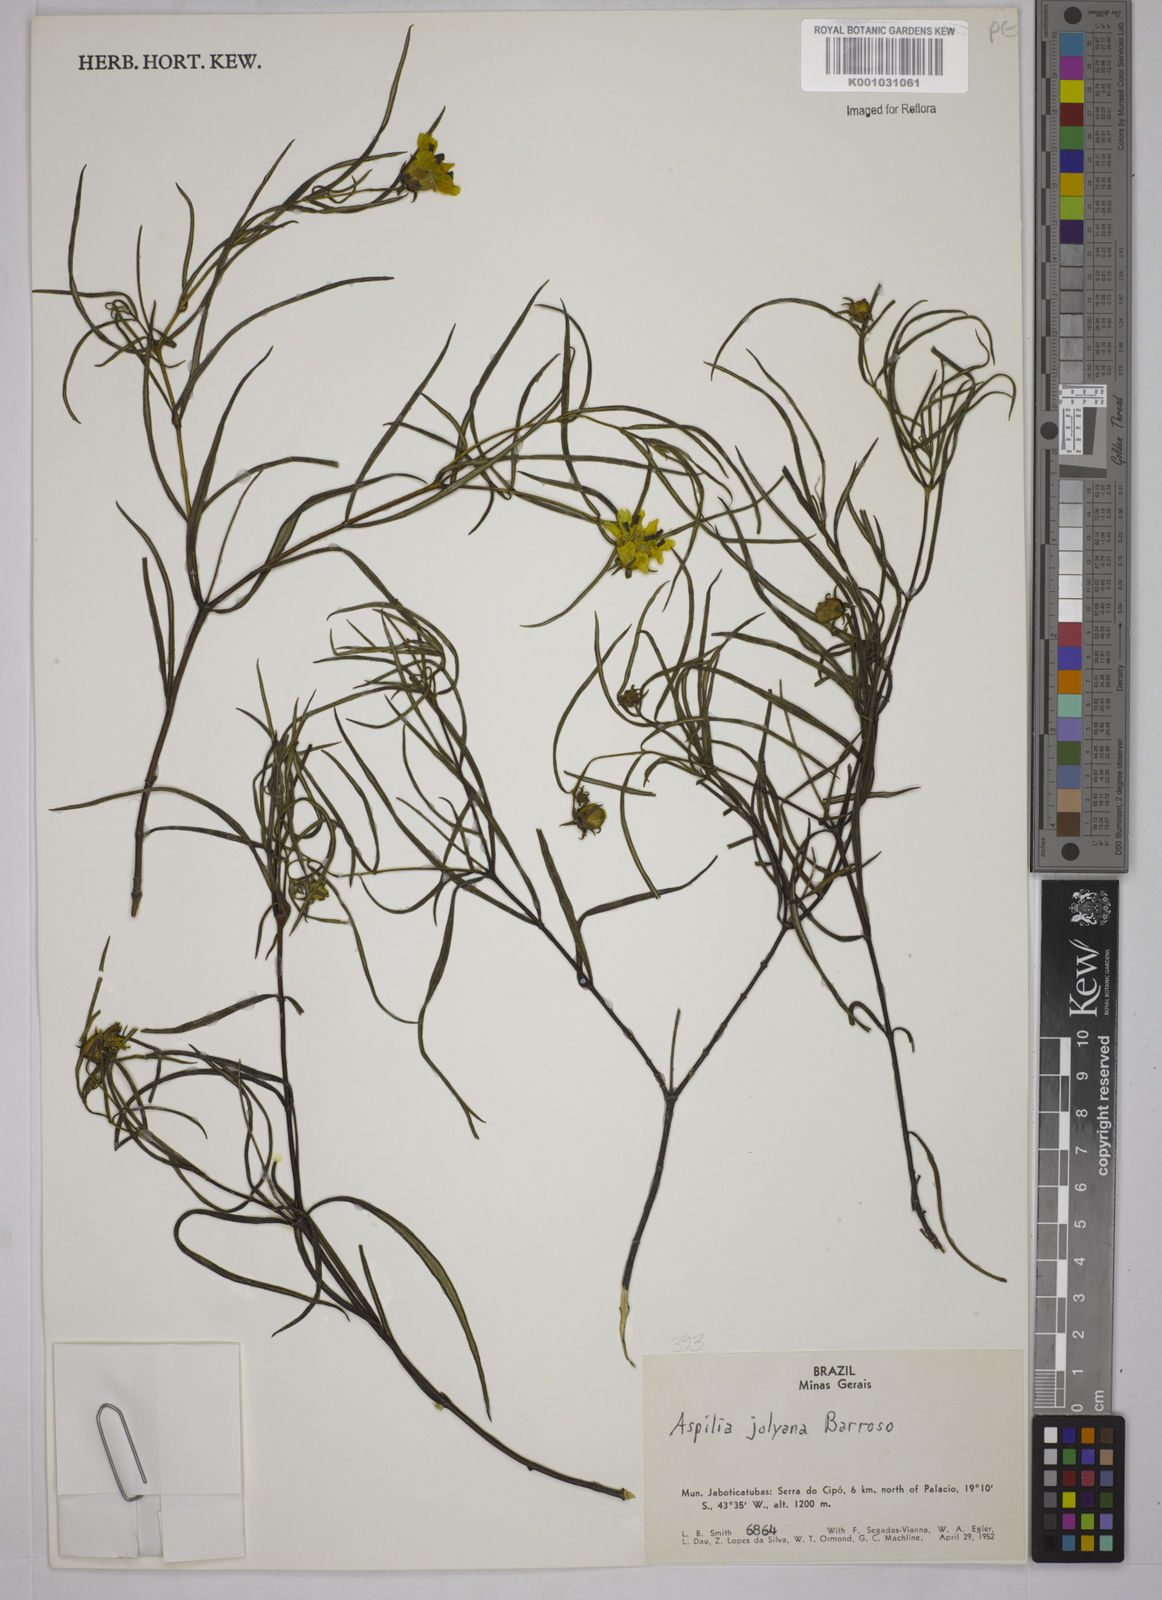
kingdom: Plantae
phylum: Tracheophyta
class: Magnoliopsida
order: Asterales
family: Asteraceae
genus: Aspilia
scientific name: Aspilia jolyana
